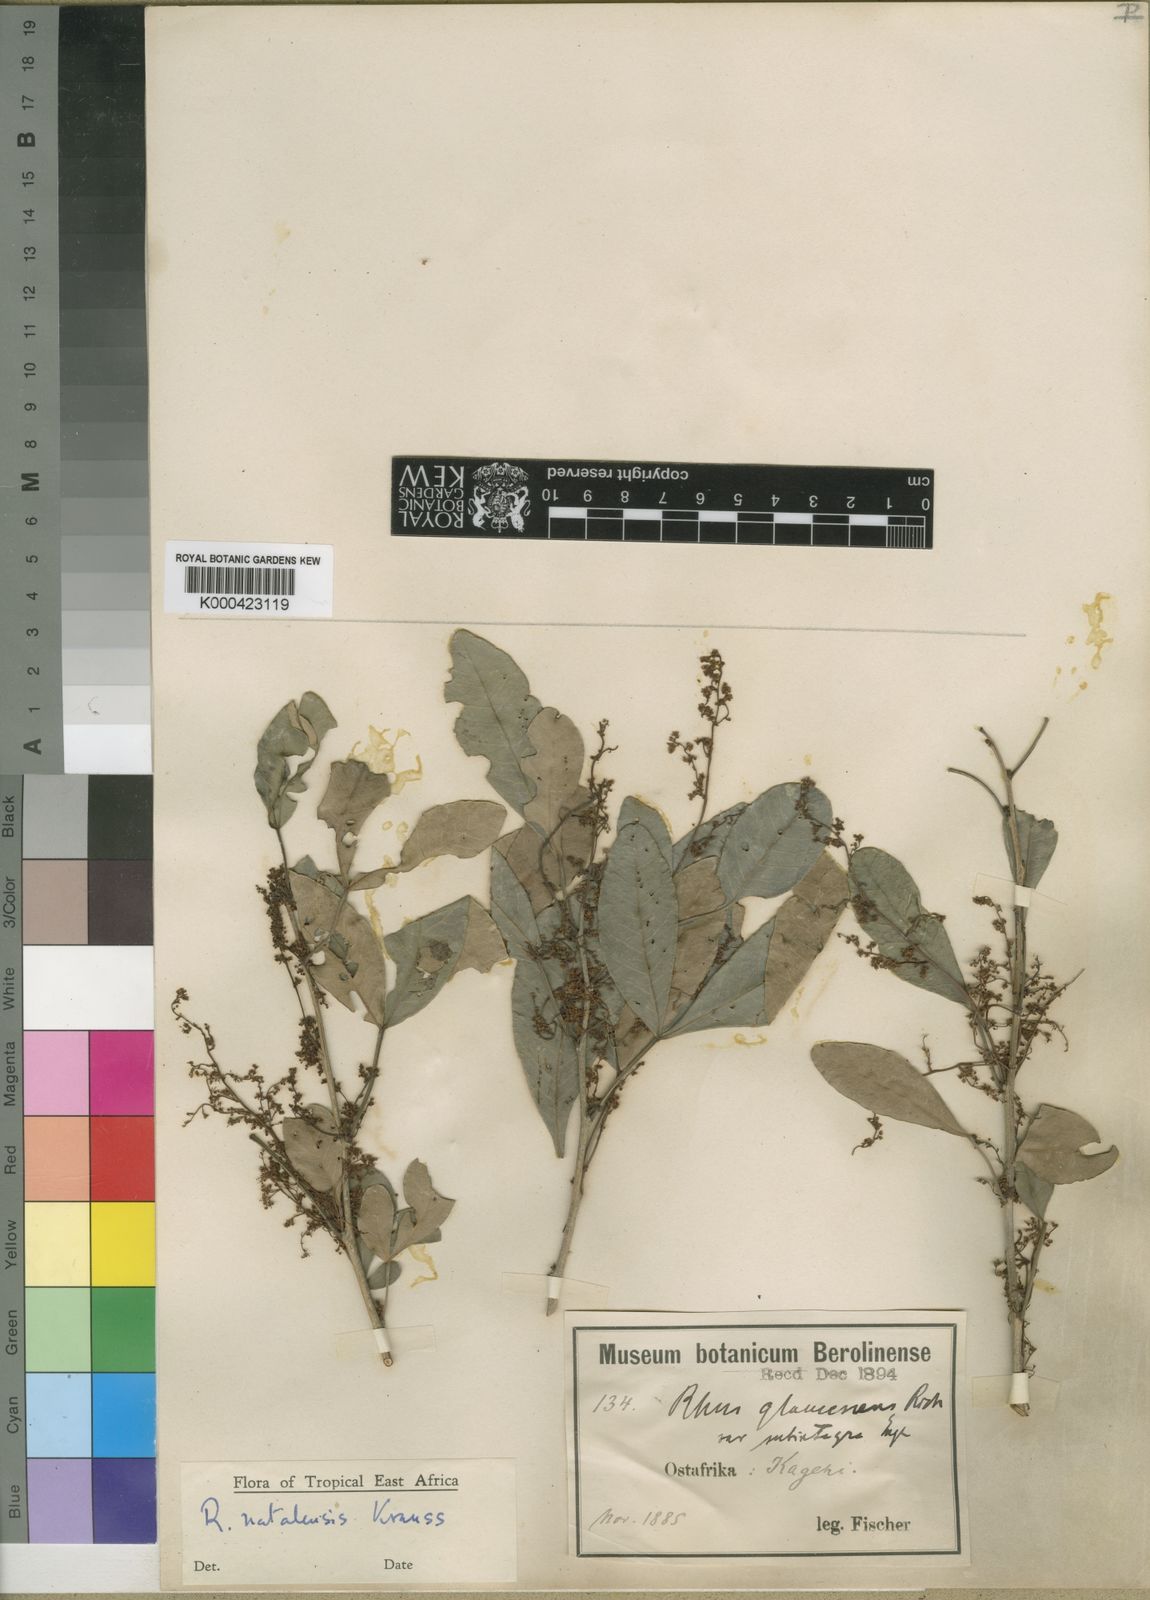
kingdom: Plantae
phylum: Tracheophyta
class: Magnoliopsida
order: Sapindales
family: Anacardiaceae
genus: Searsia
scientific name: Searsia natalensis
